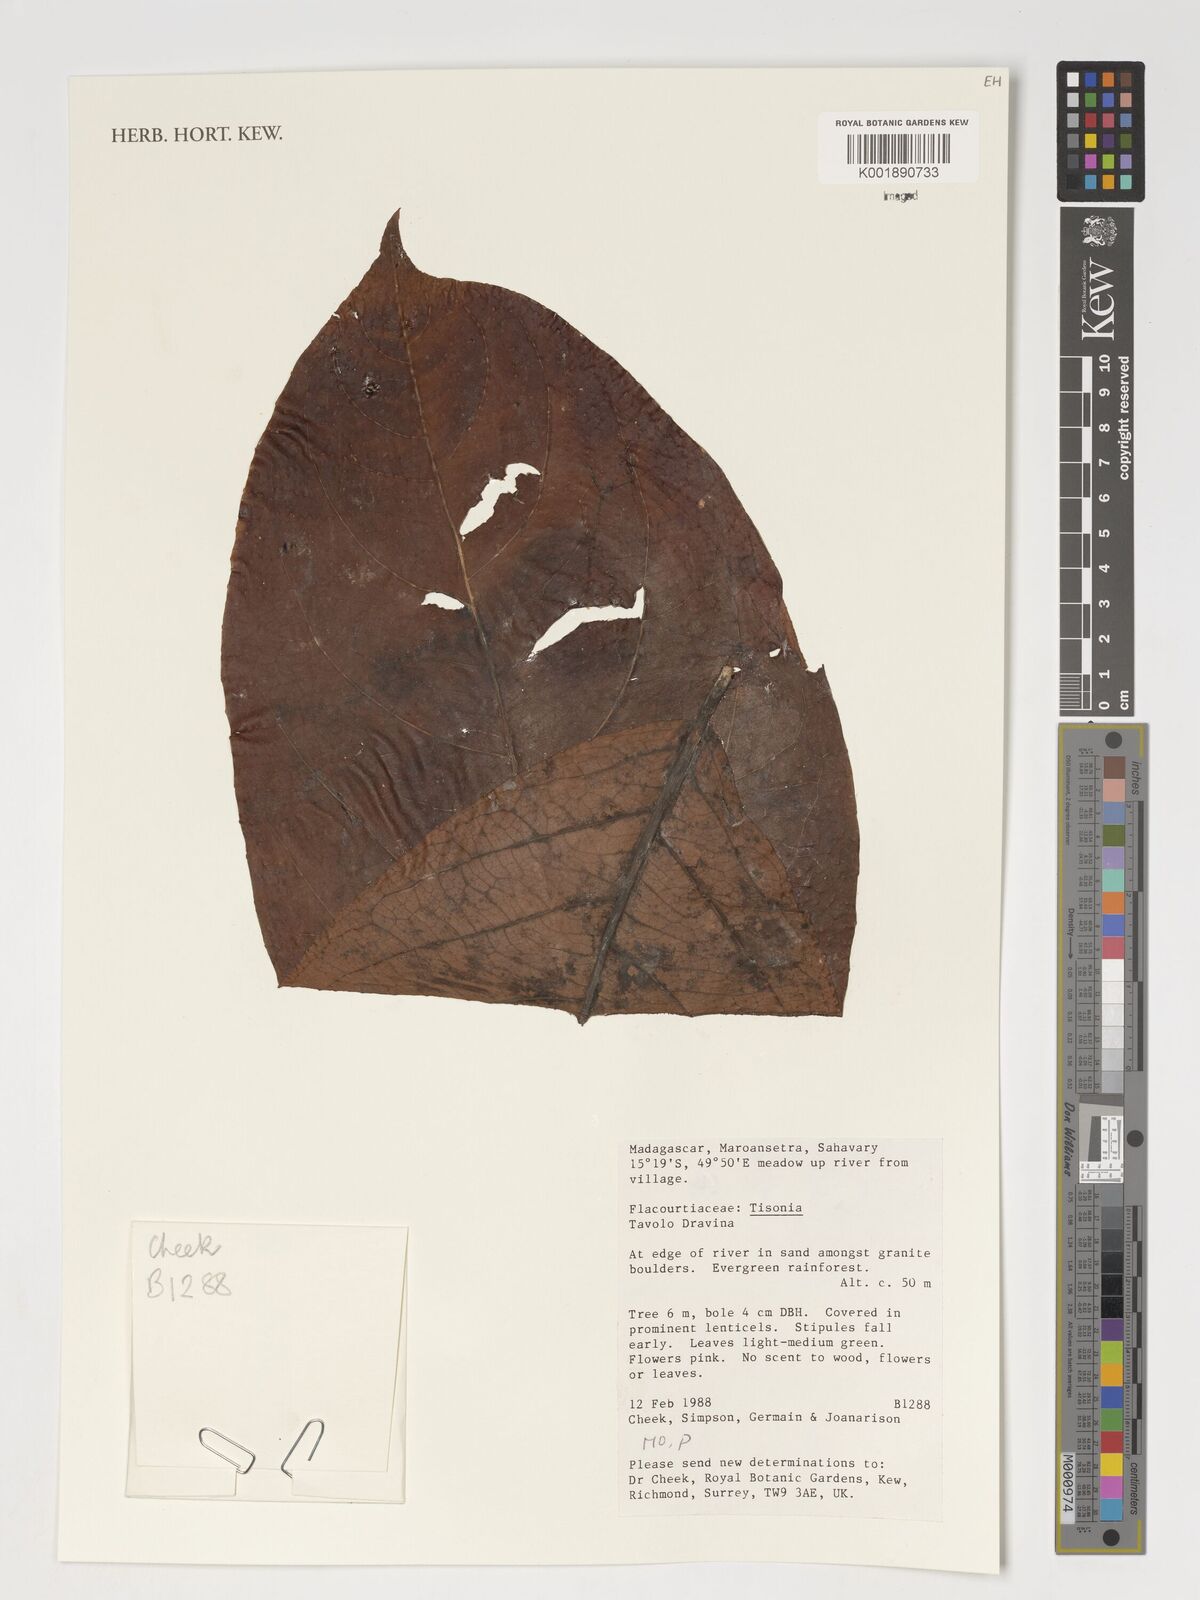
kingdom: Plantae
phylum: Tracheophyta
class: Magnoliopsida
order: Malpighiales
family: Salicaceae
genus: Tisonia
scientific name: Tisonia
